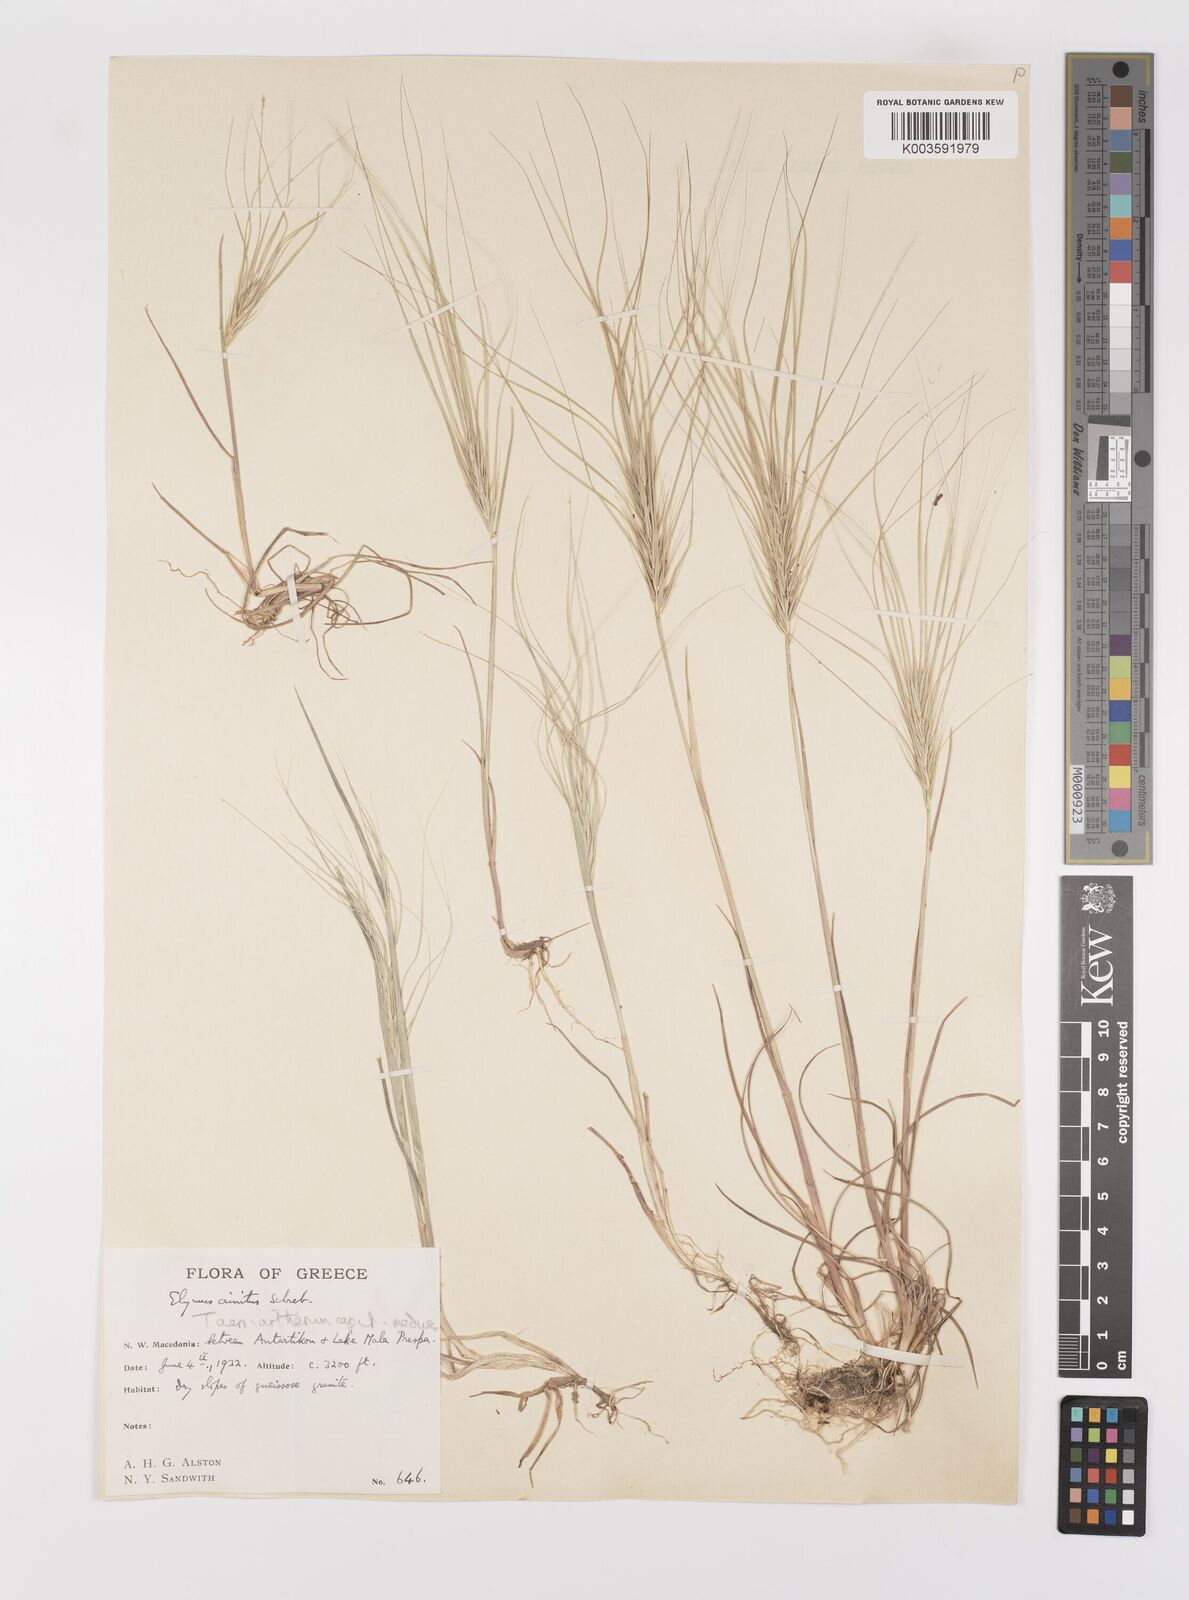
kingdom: Plantae
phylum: Tracheophyta
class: Liliopsida
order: Poales
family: Poaceae
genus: Taeniatherum
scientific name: Taeniatherum caput-medusae
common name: Medusahead
